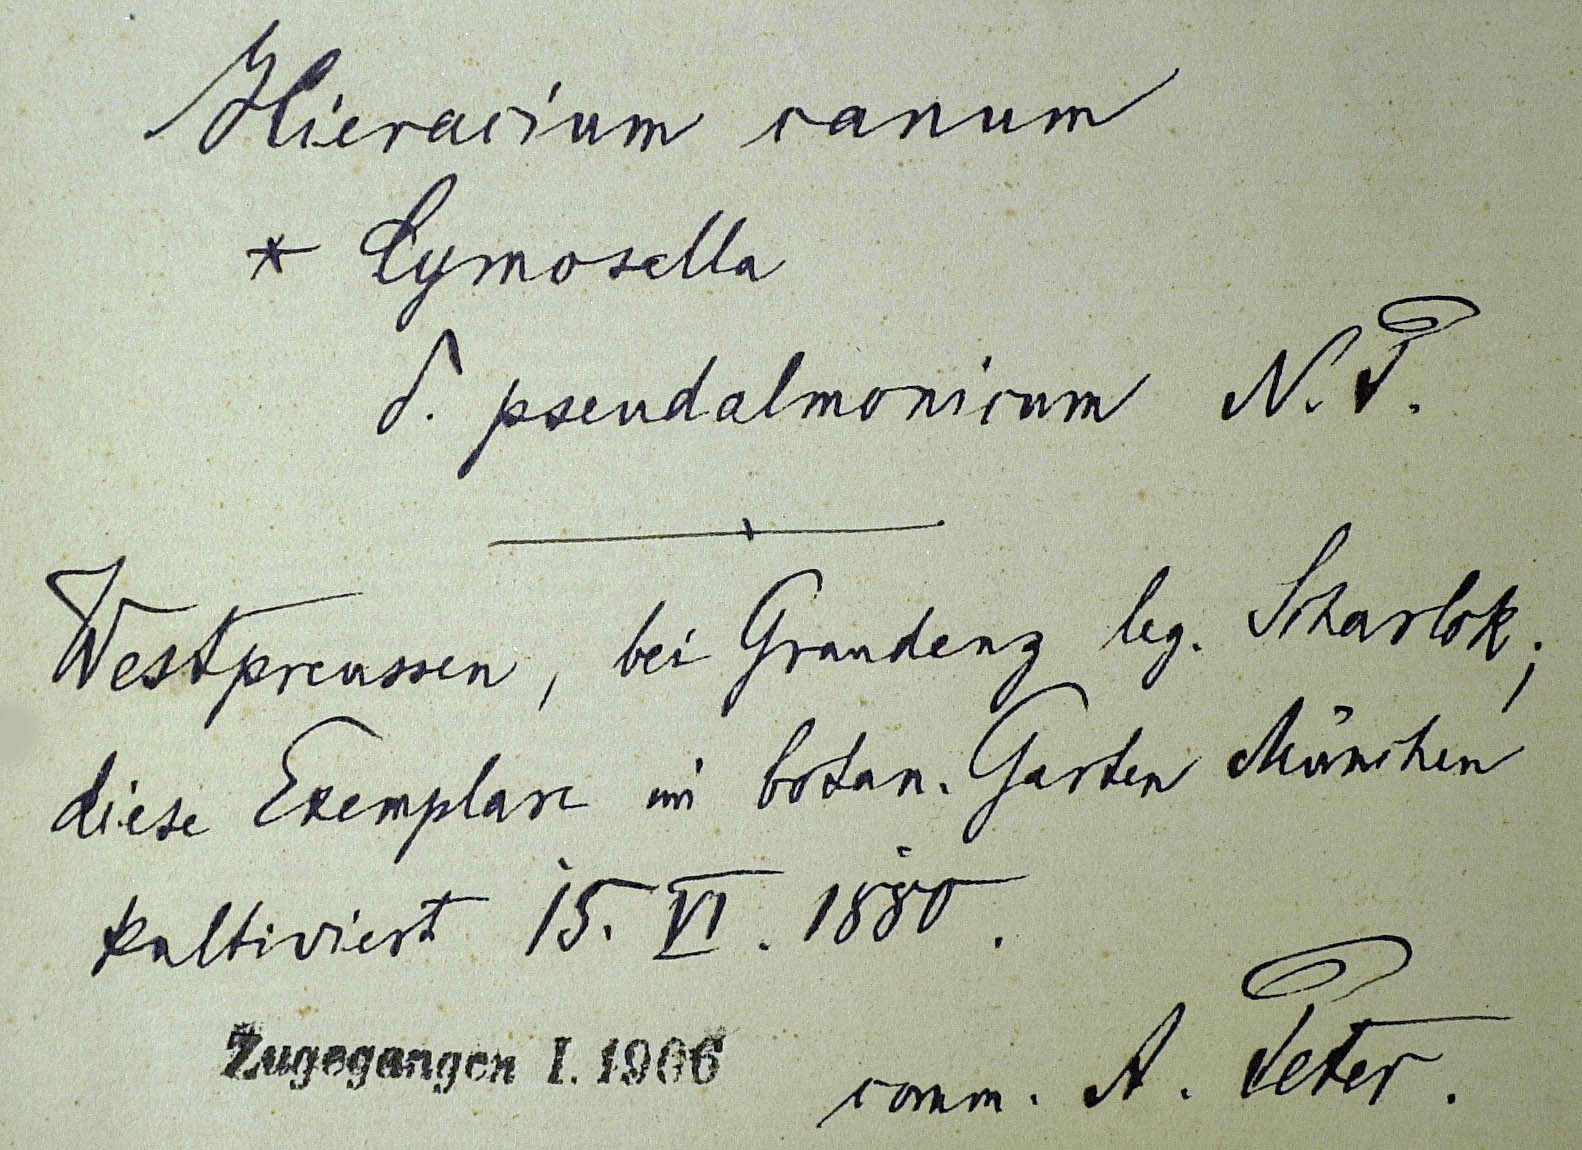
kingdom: Plantae
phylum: Tracheophyta
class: Magnoliopsida
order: Asterales
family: Asteraceae
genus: Pilosella
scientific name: Pilosella acutifolia
